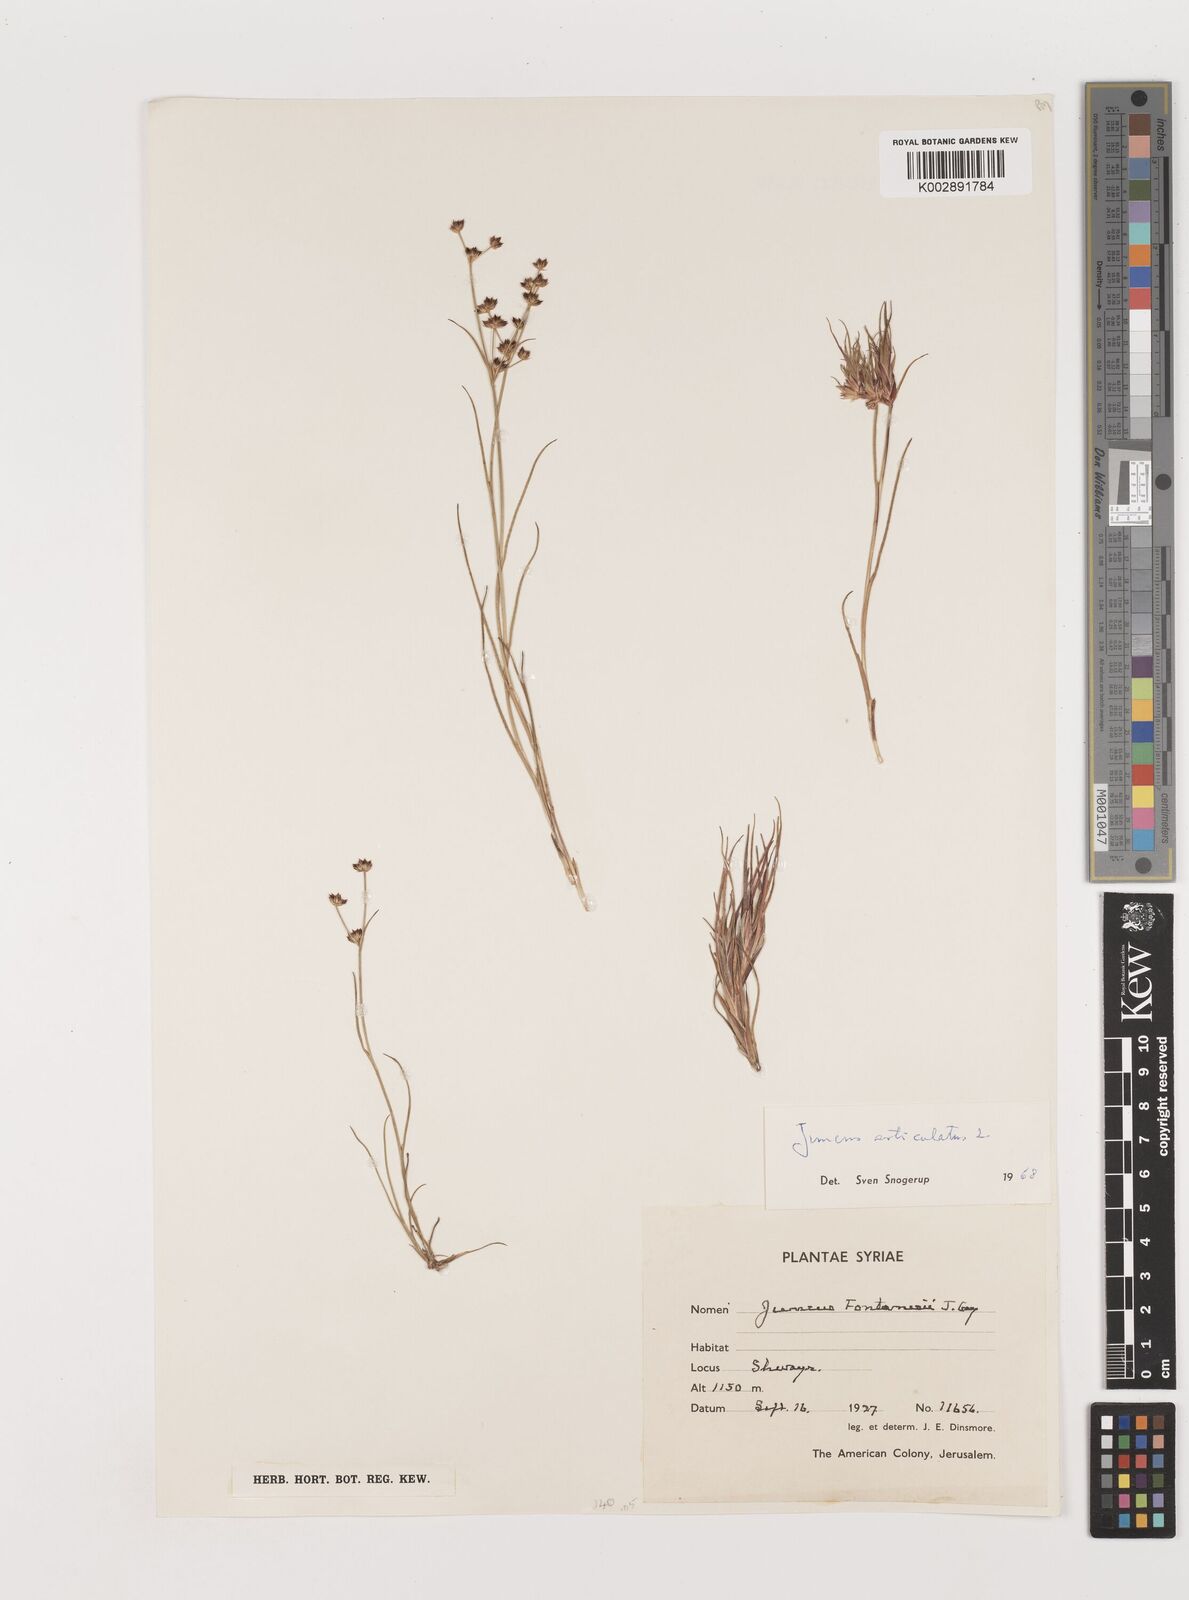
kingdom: Plantae
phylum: Tracheophyta
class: Liliopsida
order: Poales
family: Juncaceae
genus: Juncus
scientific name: Juncus articulatus
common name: Jointed rush
